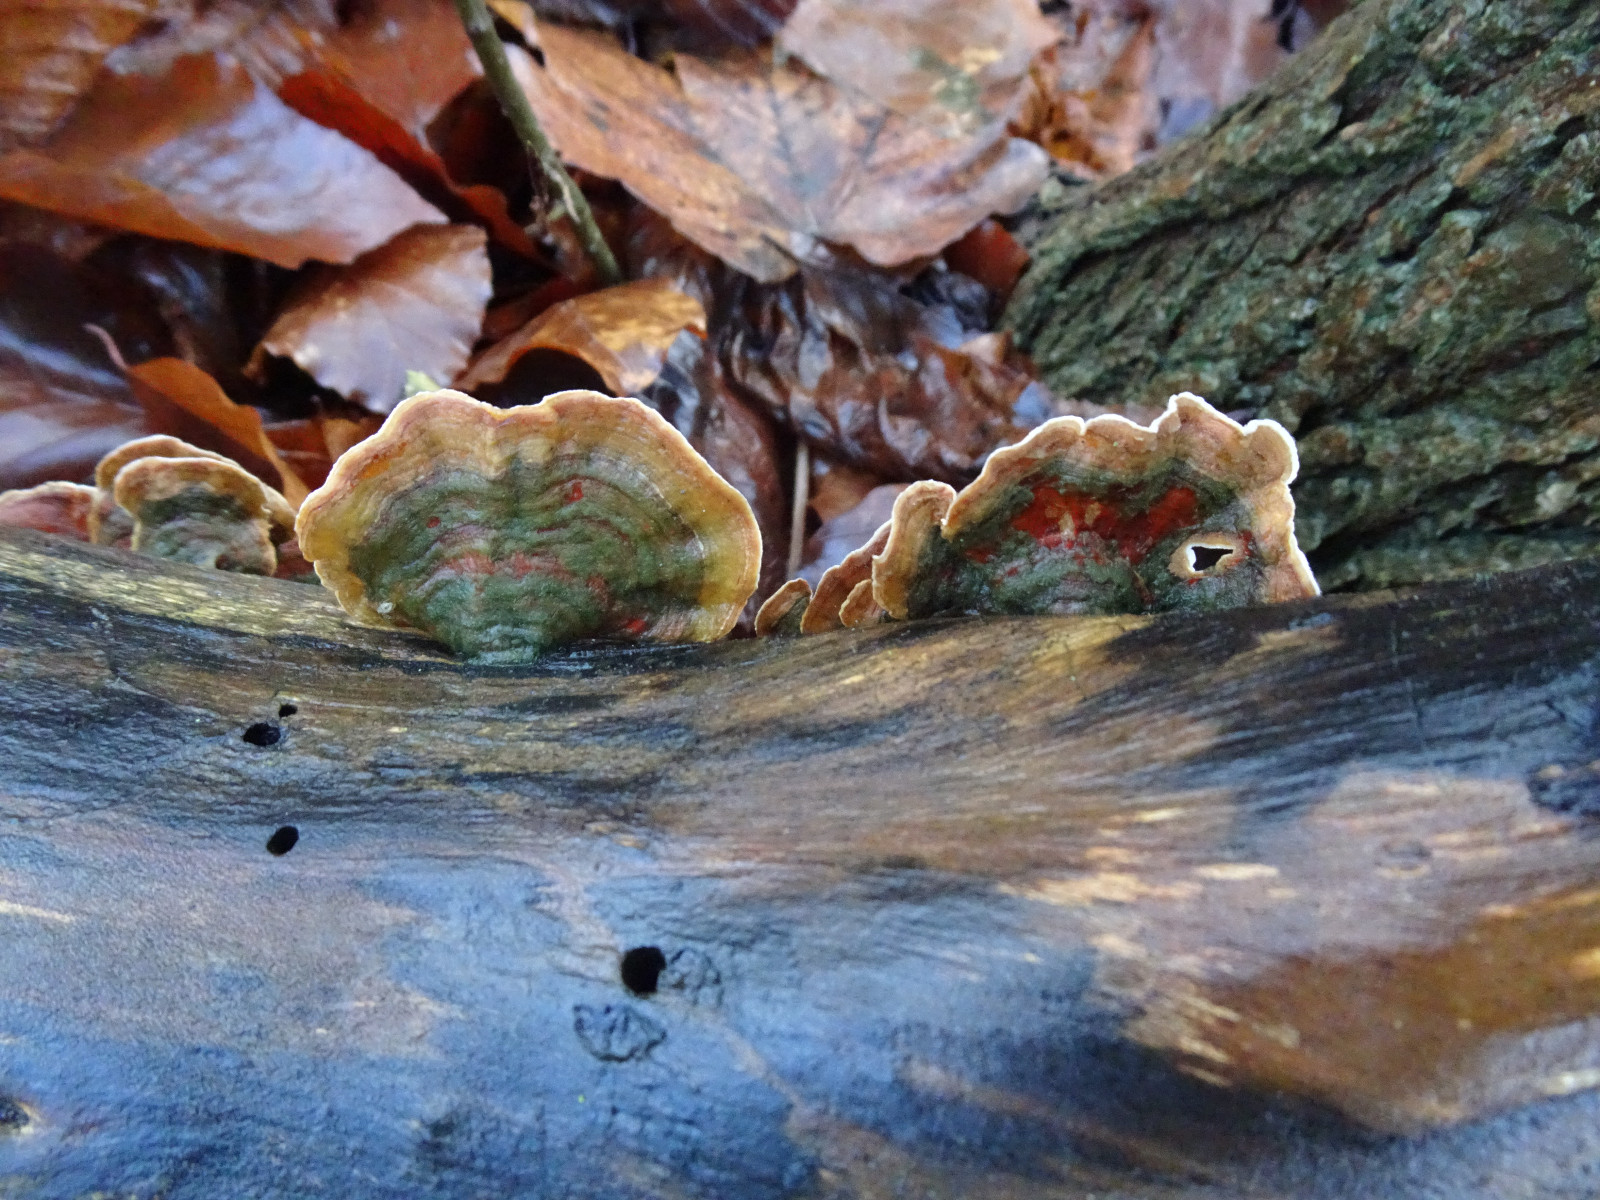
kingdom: Fungi
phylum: Basidiomycota
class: Agaricomycetes
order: Russulales
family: Stereaceae
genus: Stereum
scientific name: Stereum subtomentosum
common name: smuk lædersvamp
